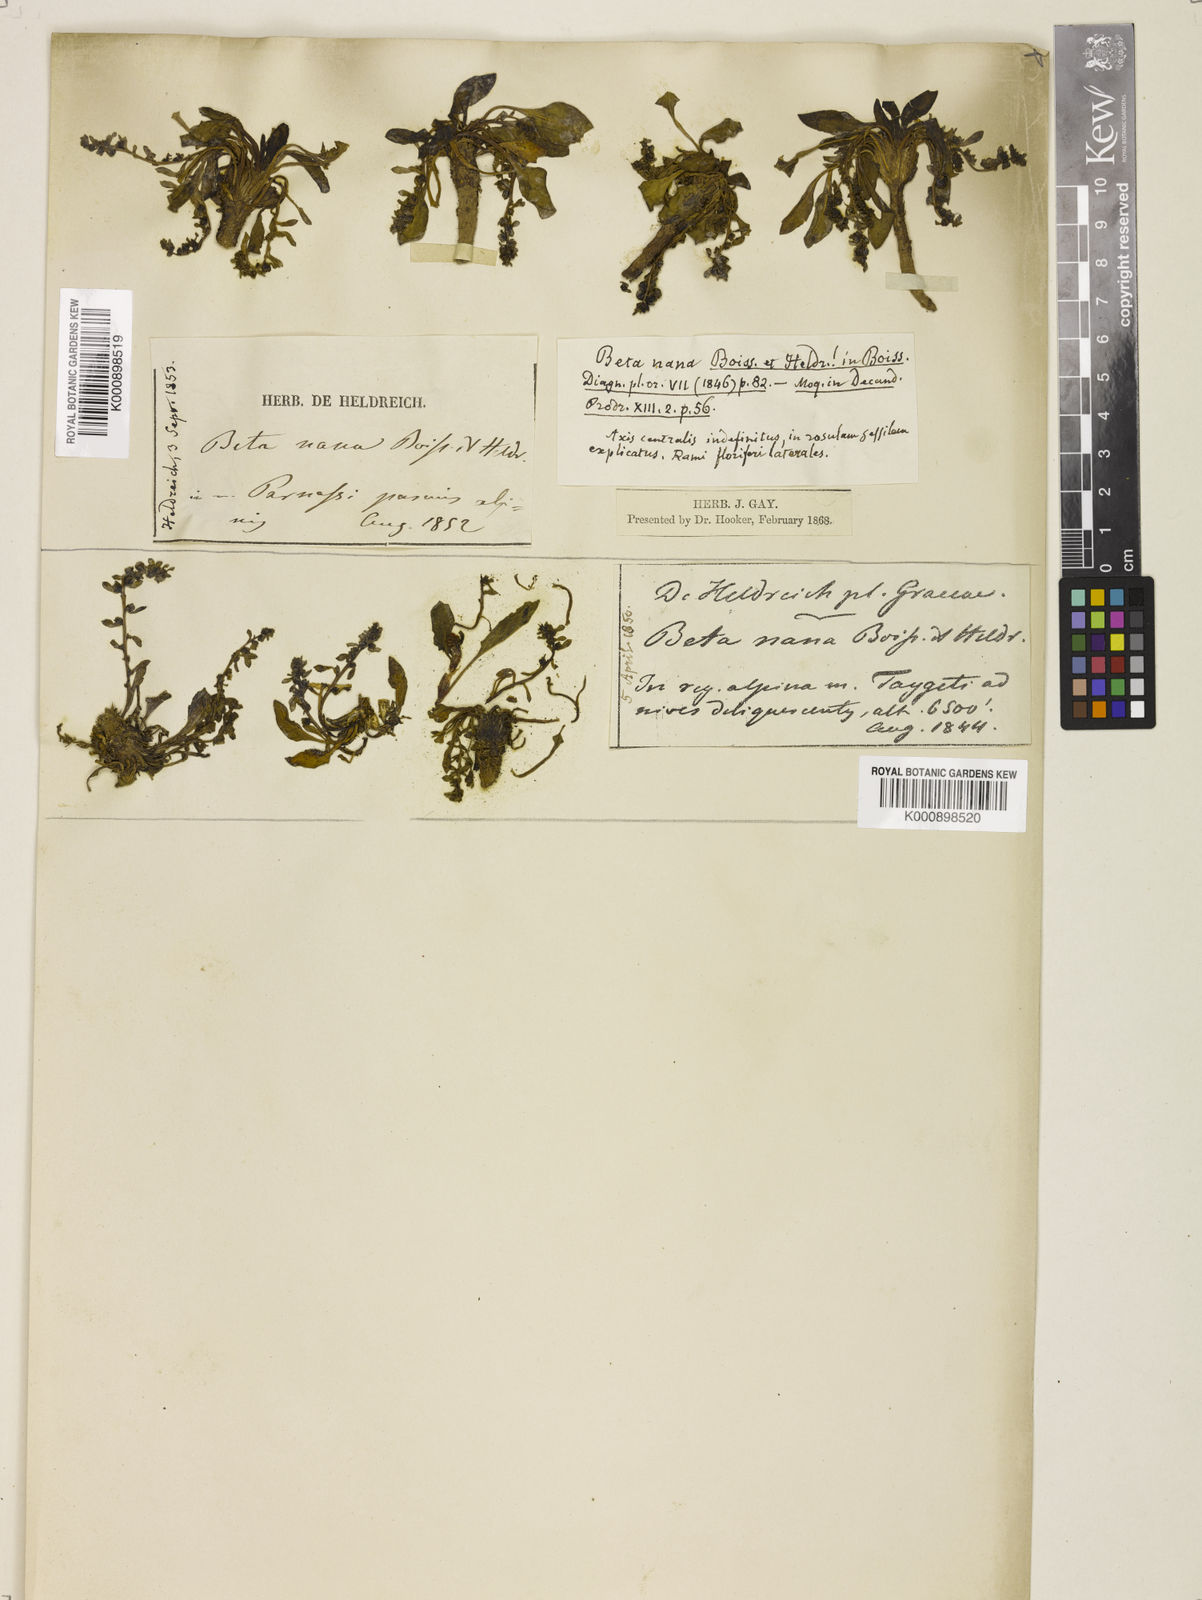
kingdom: Plantae
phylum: Tracheophyta
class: Magnoliopsida
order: Caryophyllales
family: Amaranthaceae
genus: Beta
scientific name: Beta nana
